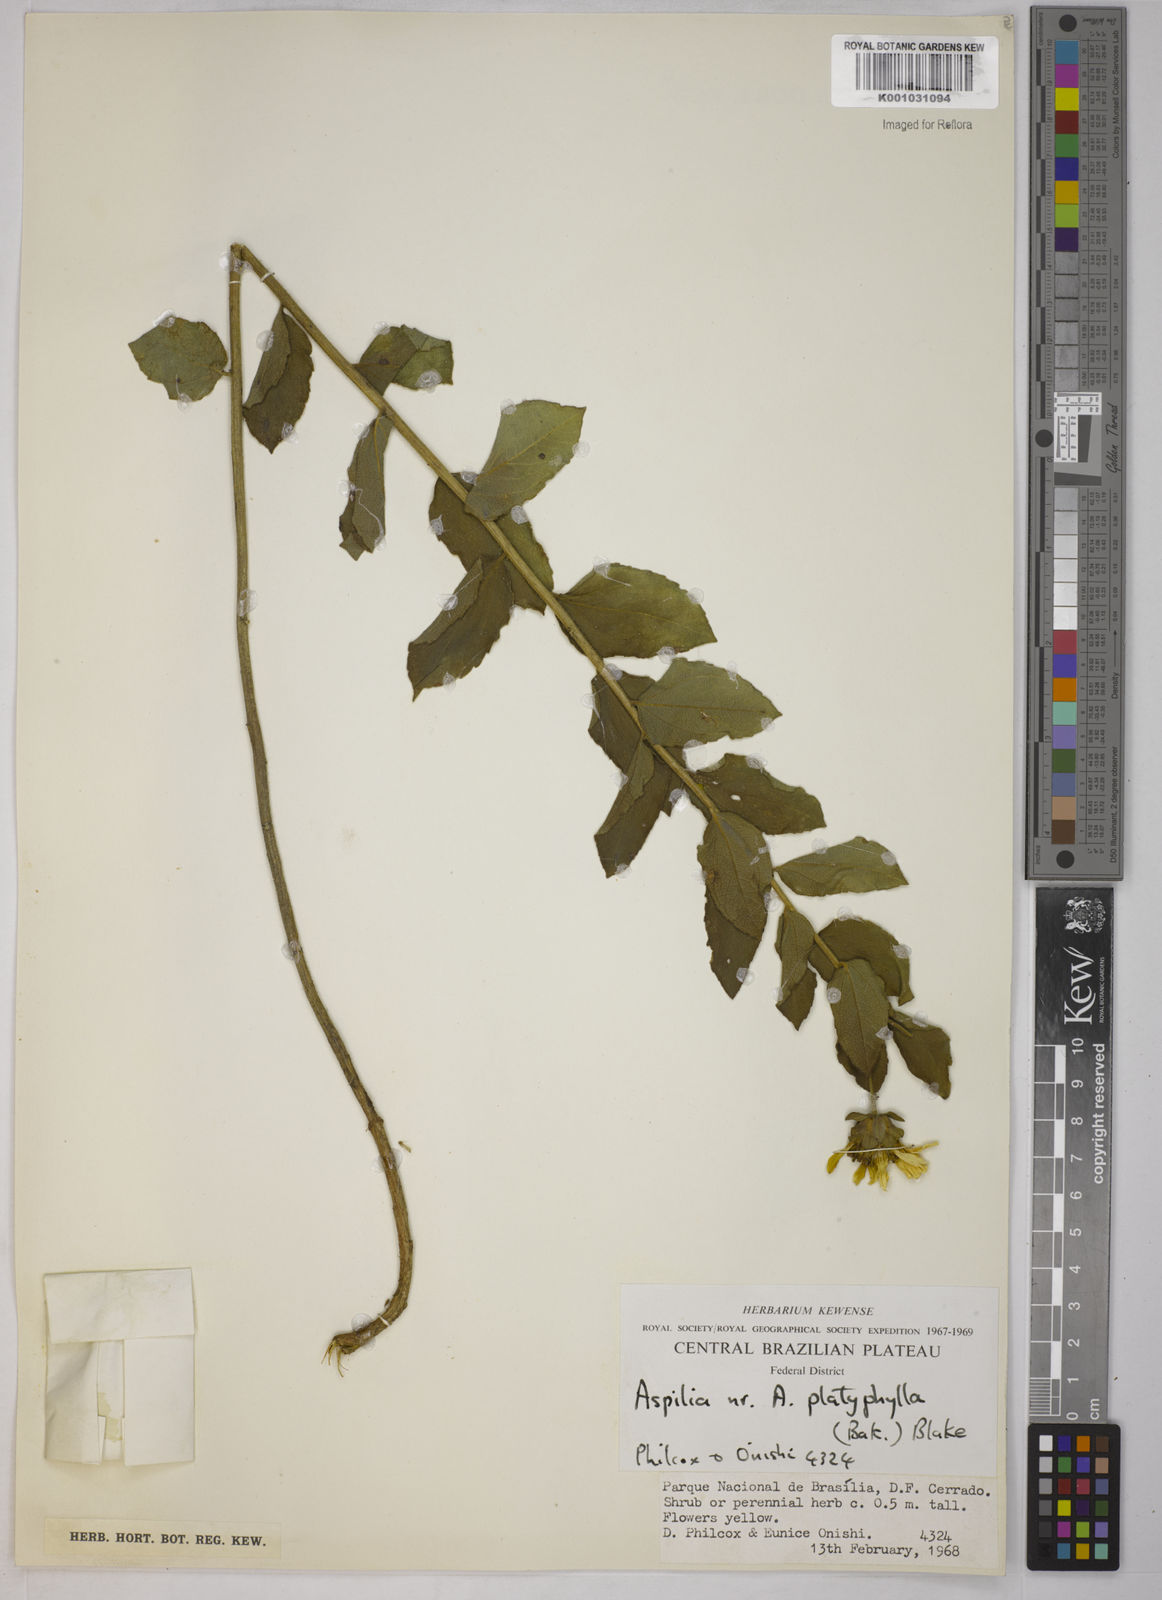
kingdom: Plantae
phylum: Tracheophyta
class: Magnoliopsida
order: Asterales
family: Asteraceae
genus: Aspilia
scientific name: Aspilia
